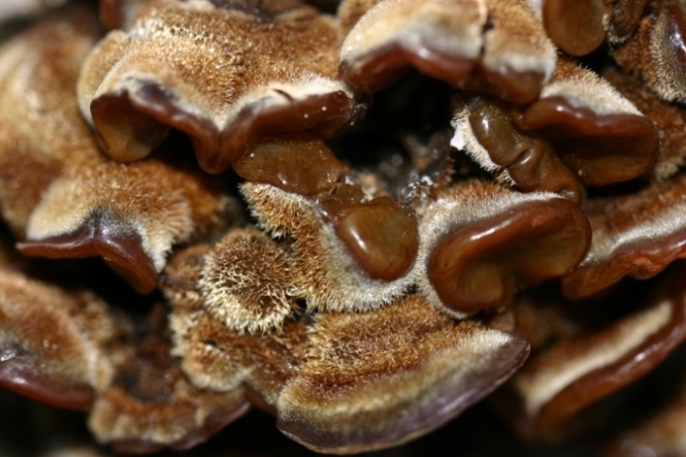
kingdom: Fungi
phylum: Basidiomycota
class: Agaricomycetes
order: Auriculariales
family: Auriculariaceae
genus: Auricularia
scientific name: Auricularia mesenterica
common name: håret judasøre
